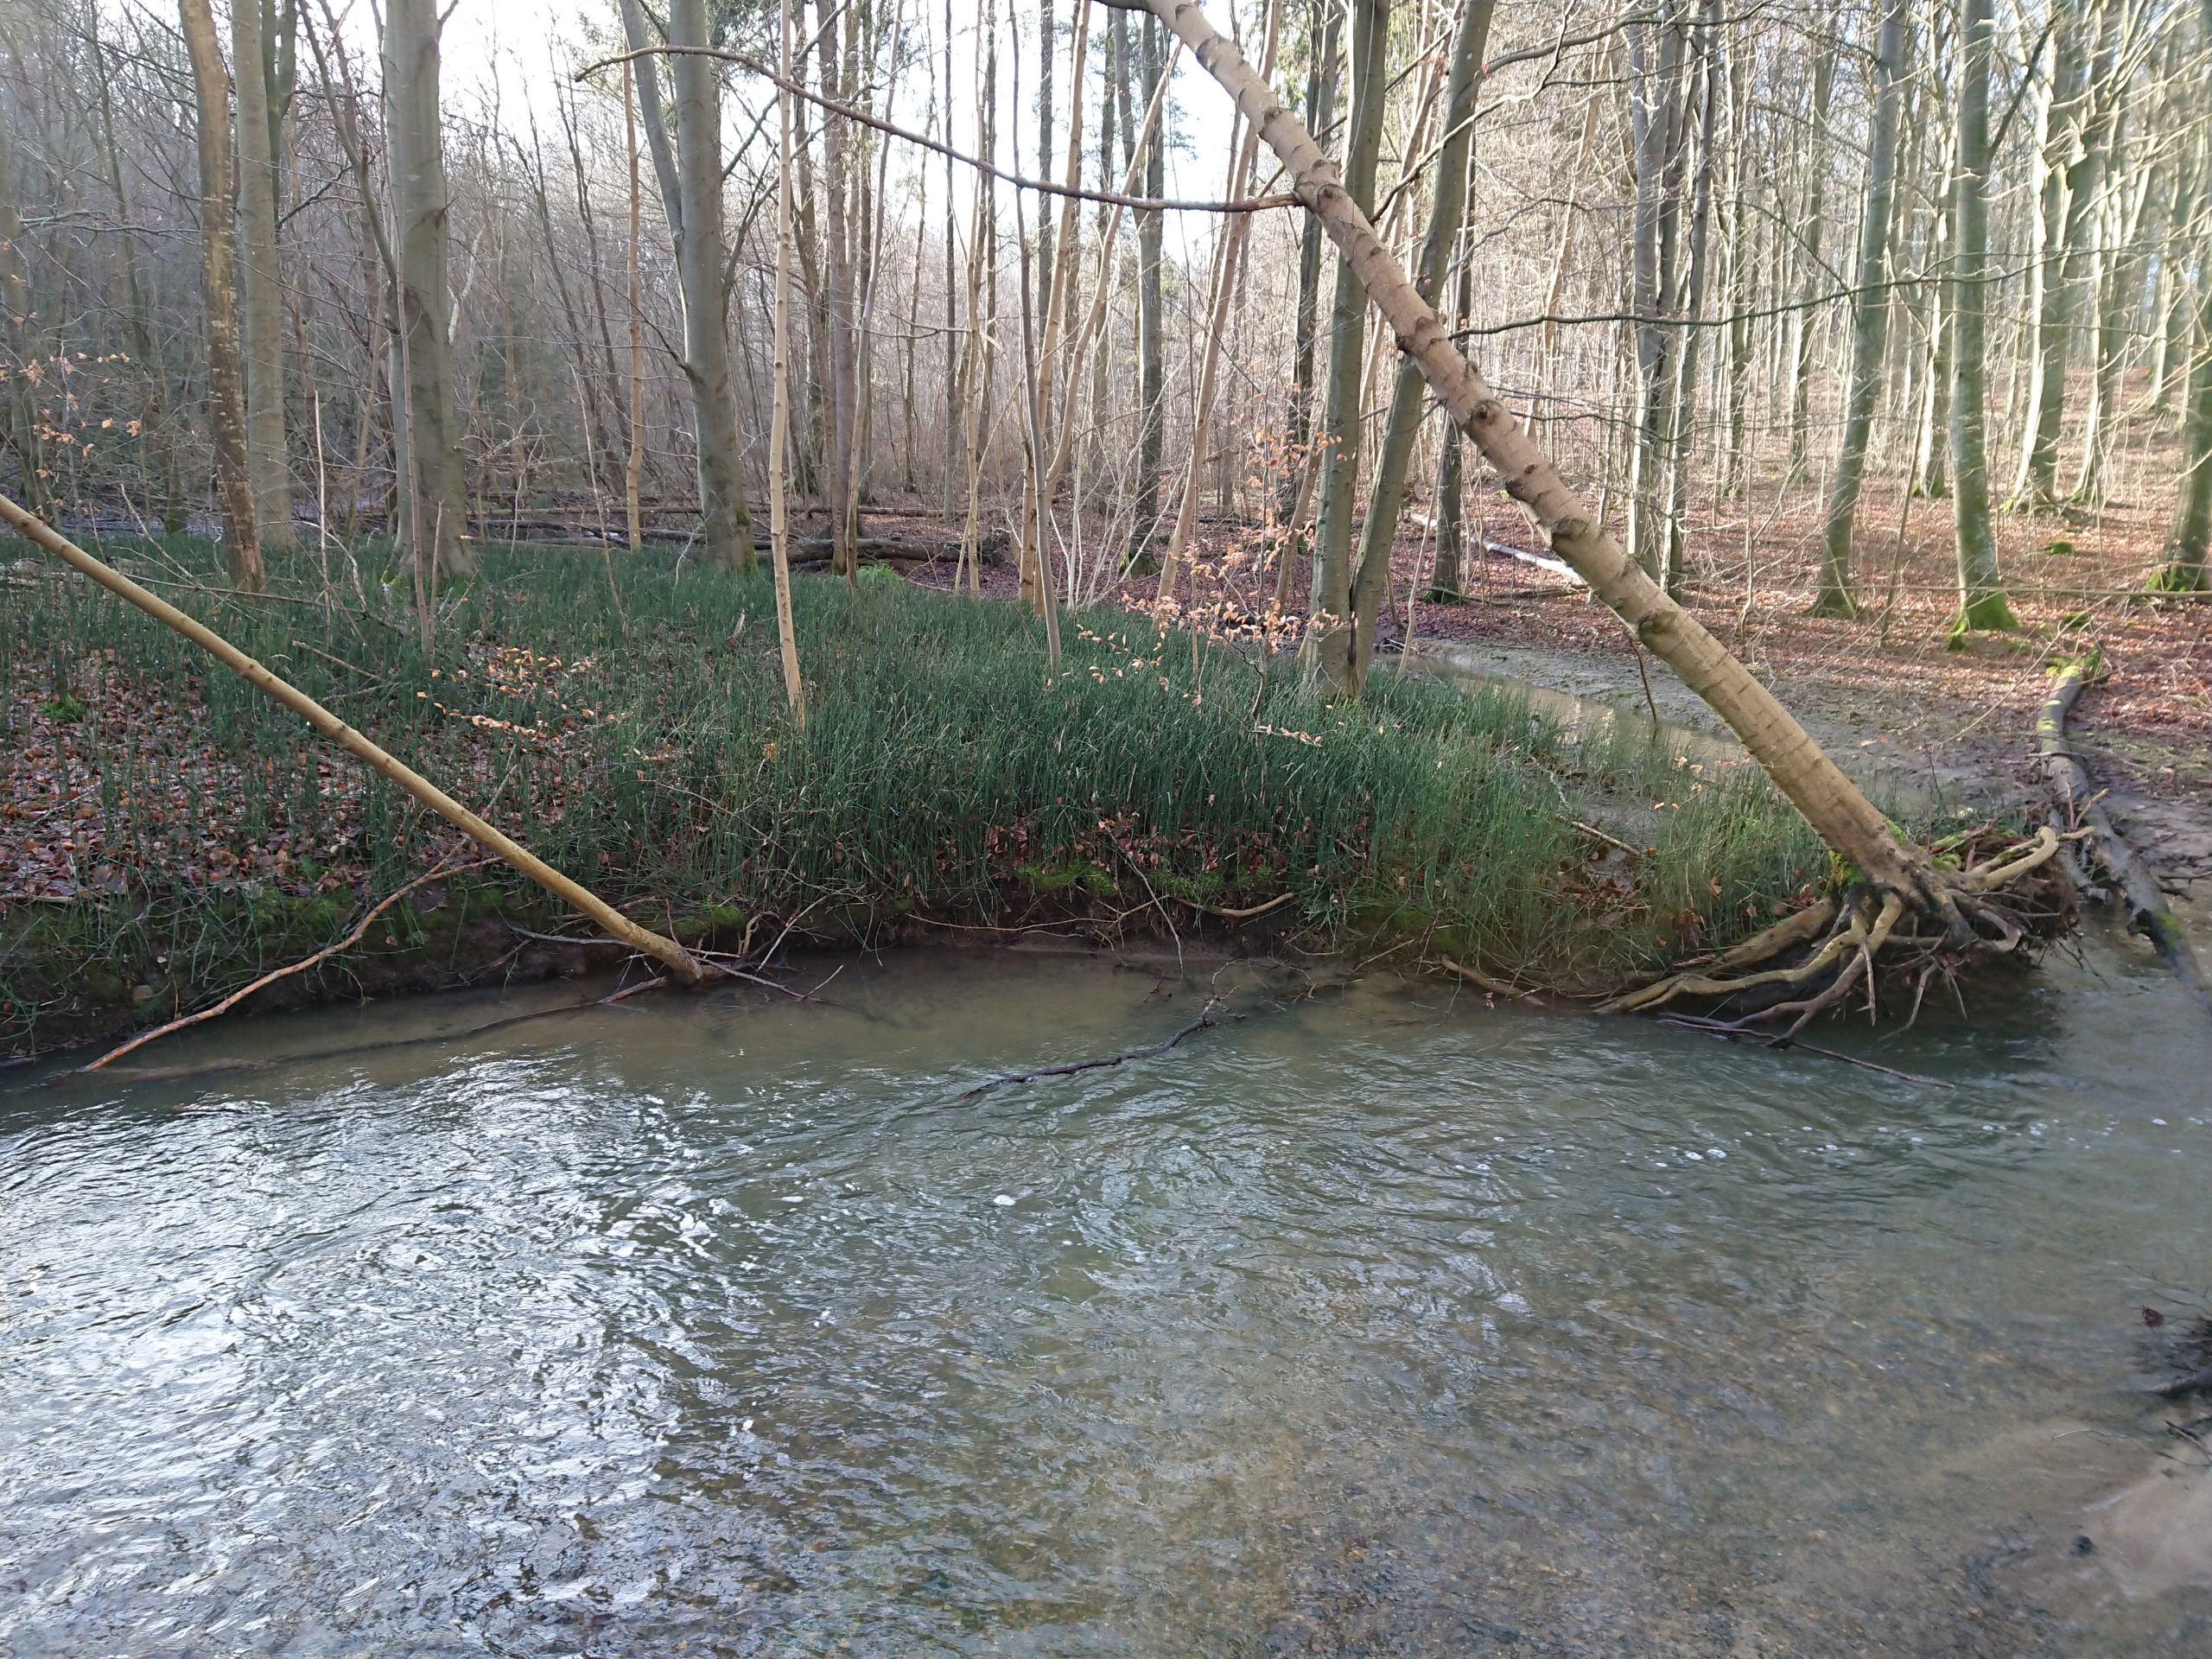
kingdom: Plantae
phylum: Tracheophyta
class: Polypodiopsida
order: Equisetales
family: Equisetaceae
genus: Equisetum
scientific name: Equisetum hyemale
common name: Skavgræs
